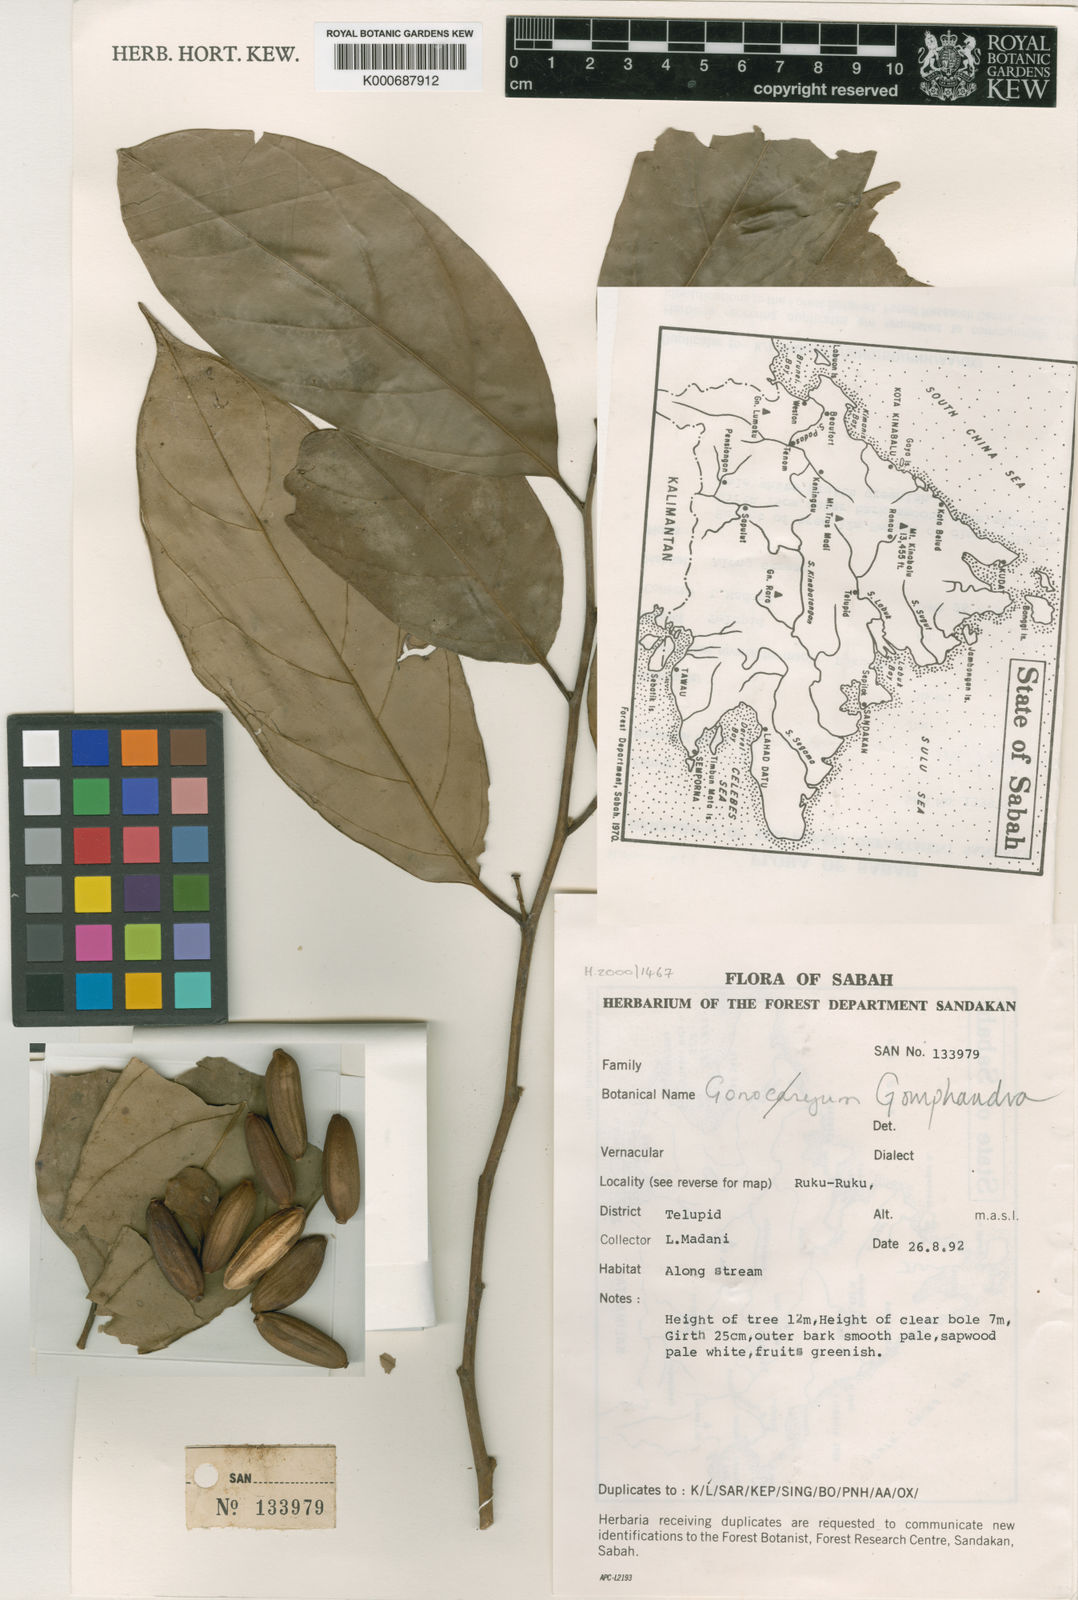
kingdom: Plantae
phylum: Tracheophyta
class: Magnoliopsida
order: Cardiopteridales
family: Stemonuraceae
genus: Gomphandra
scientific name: Gomphandra
